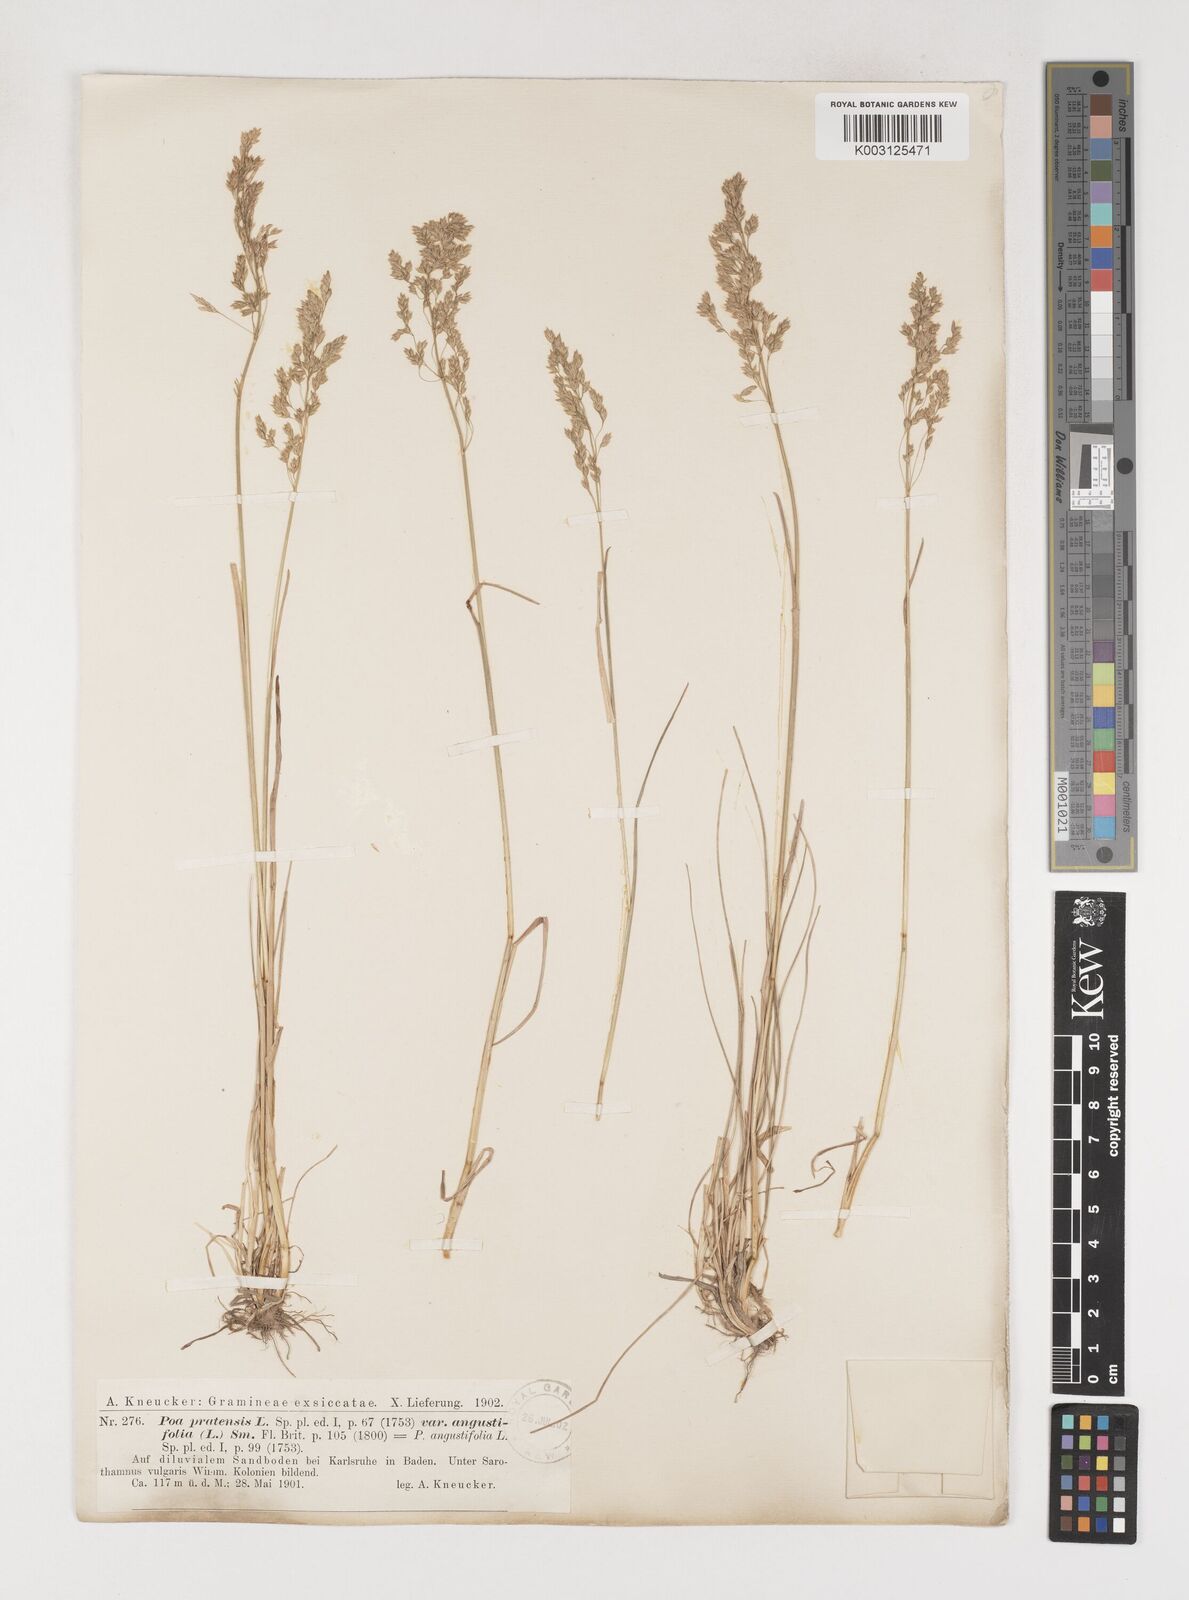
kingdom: Plantae
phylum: Tracheophyta
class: Liliopsida
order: Poales
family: Poaceae
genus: Poa
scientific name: Poa angustifolia
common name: Narrow-leaved meadow-grass
